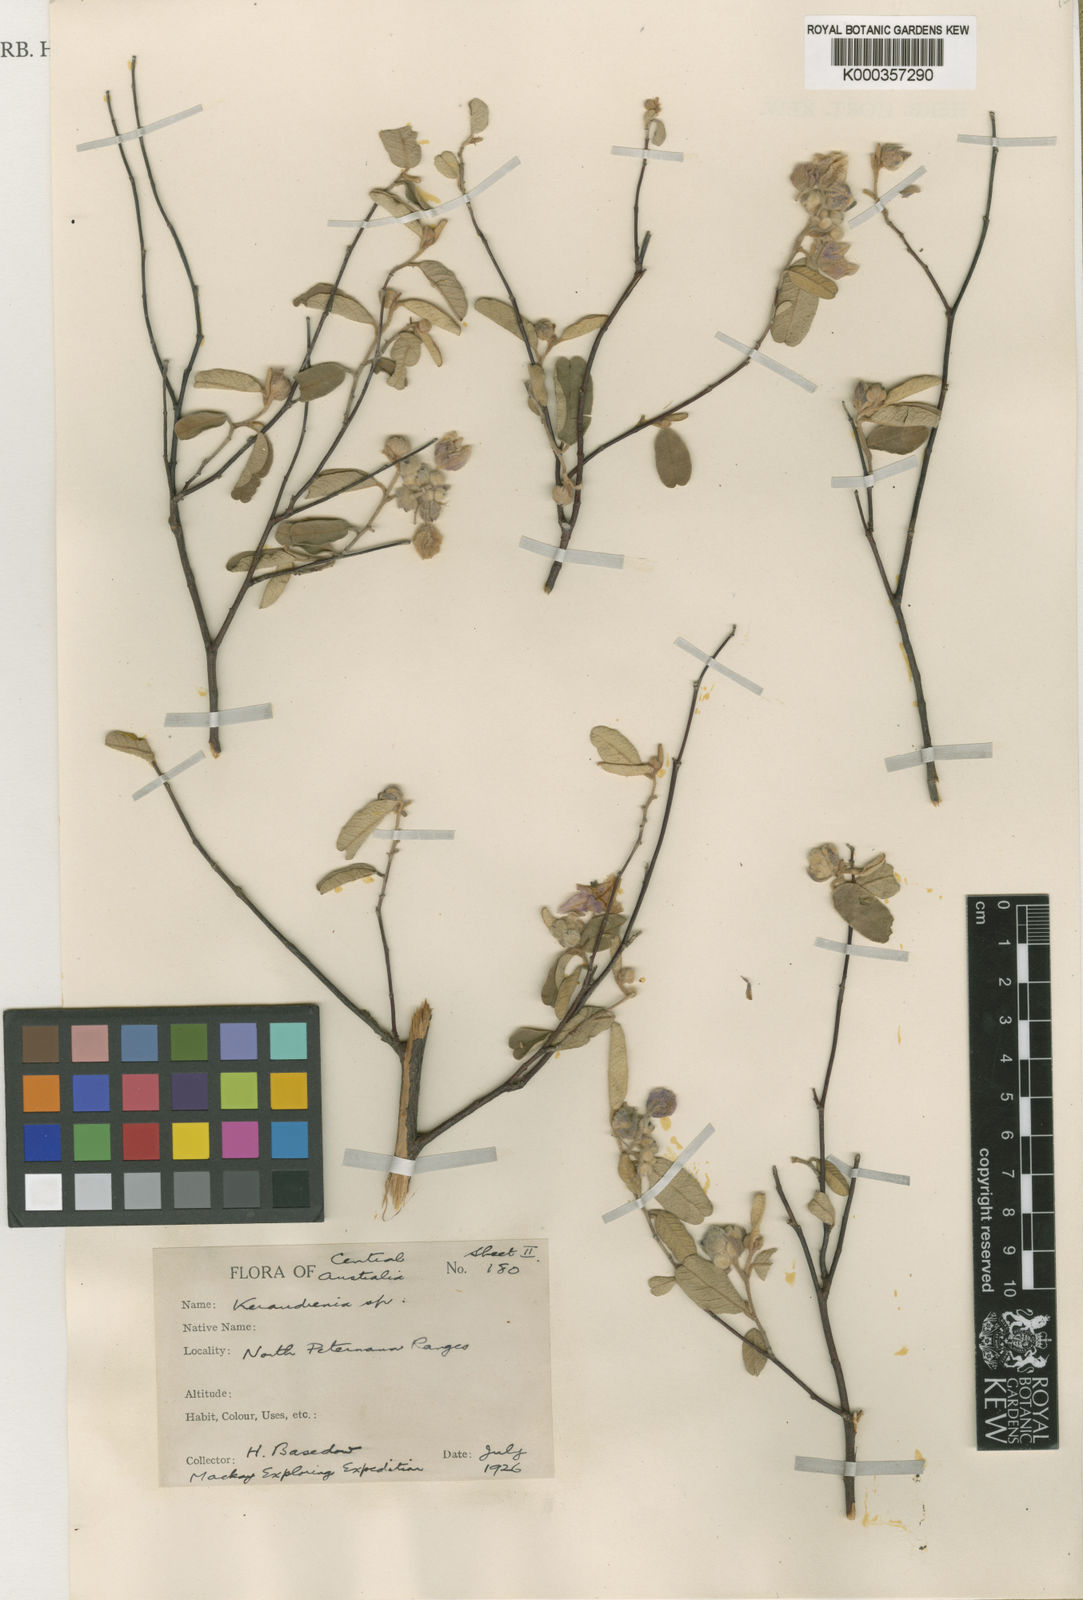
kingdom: Plantae
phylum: Tracheophyta
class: Magnoliopsida
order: Malvales
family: Malvaceae
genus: Seringia
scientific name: Seringia
